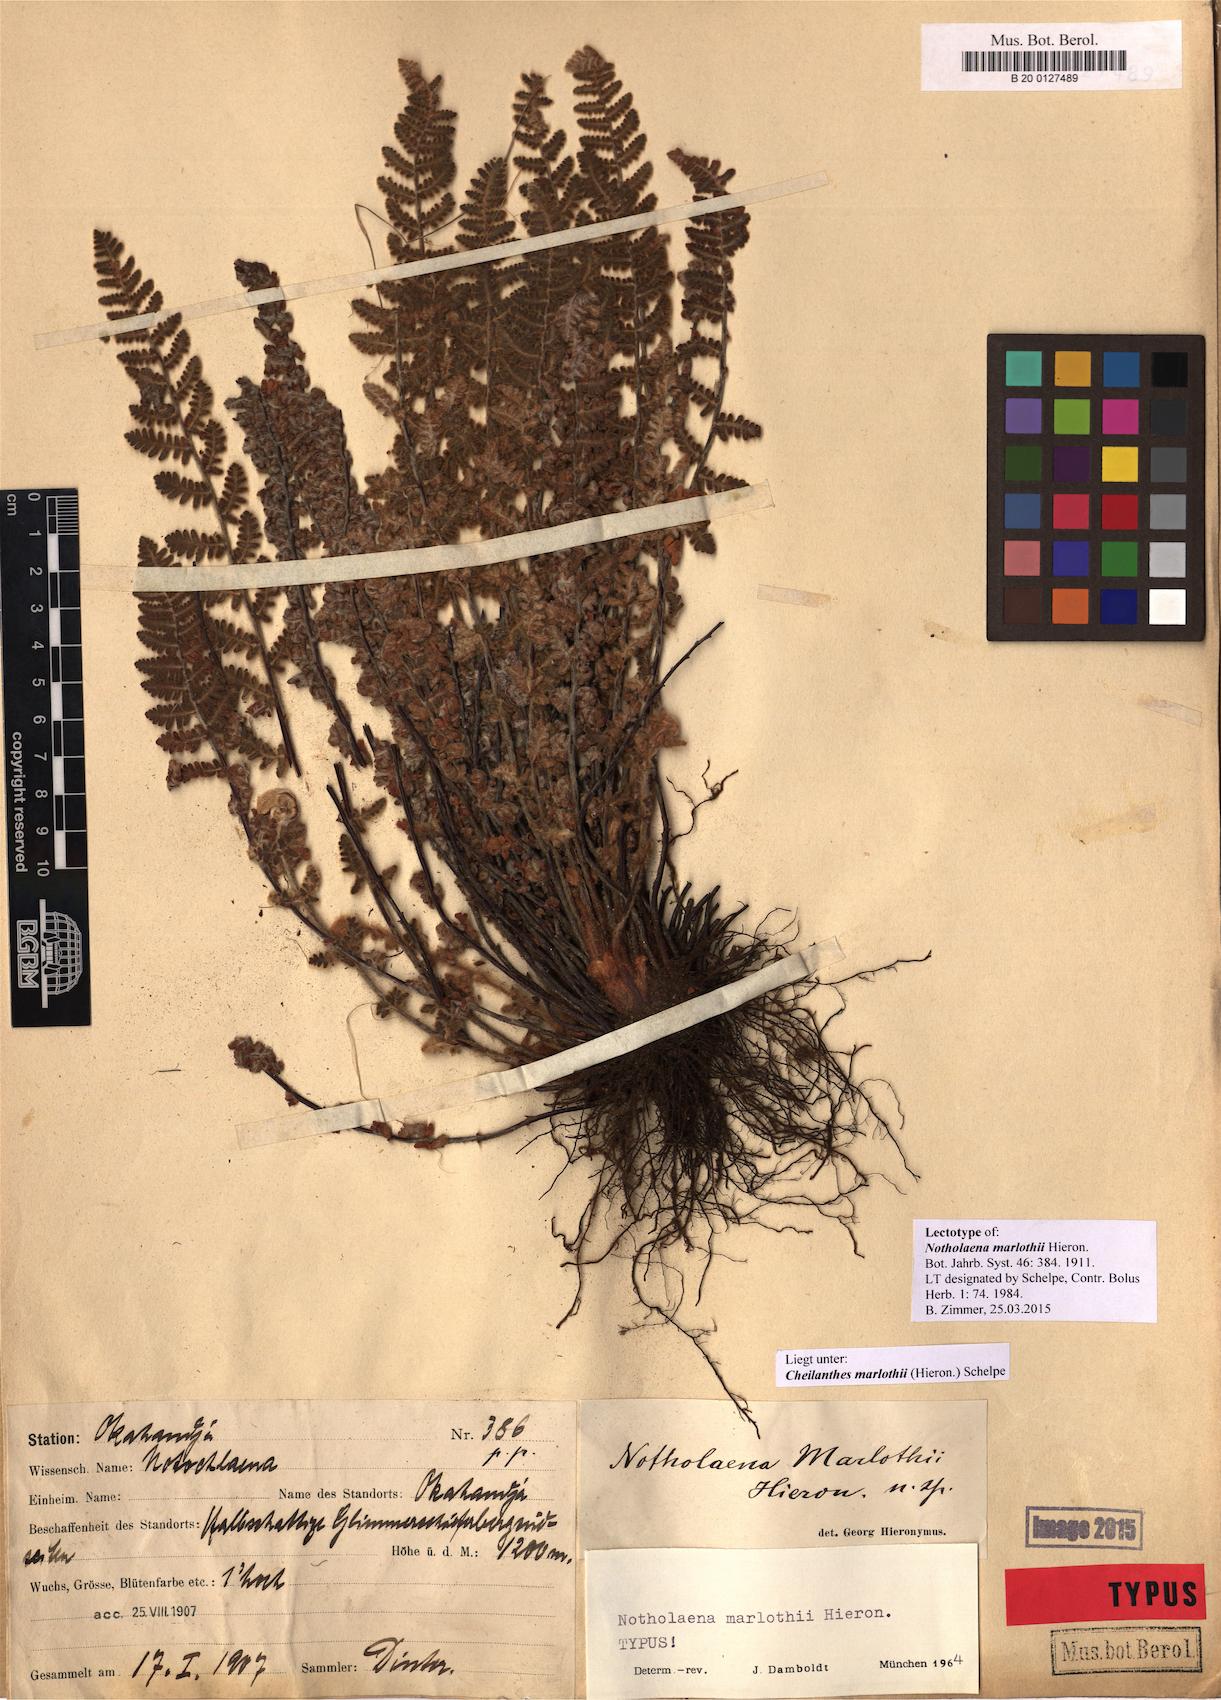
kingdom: Plantae
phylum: Tracheophyta
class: Polypodiopsida
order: Polypodiales
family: Pteridaceae
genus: Cheilanthes
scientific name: Cheilanthes marlothii
